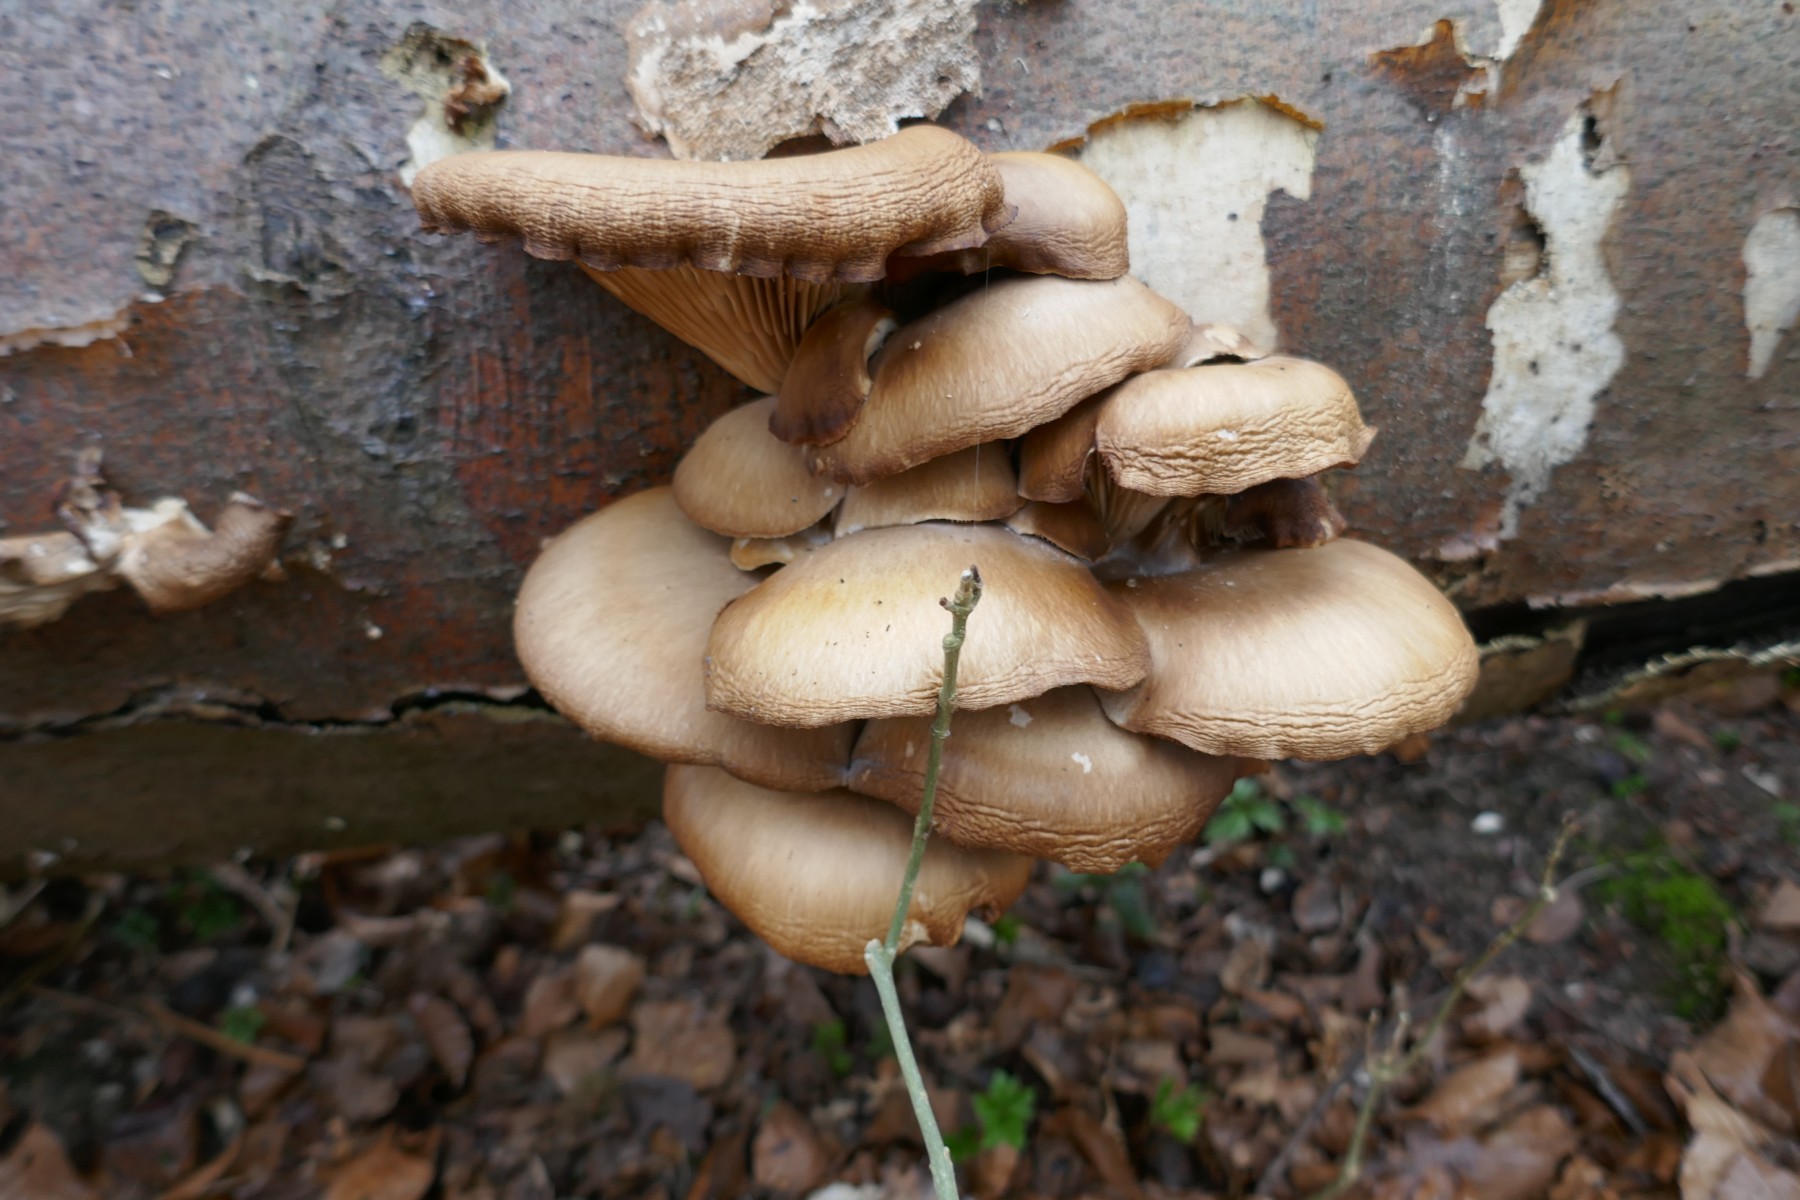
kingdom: Fungi
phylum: Basidiomycota
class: Agaricomycetes
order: Agaricales
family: Pleurotaceae
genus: Pleurotus
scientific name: Pleurotus ostreatus
